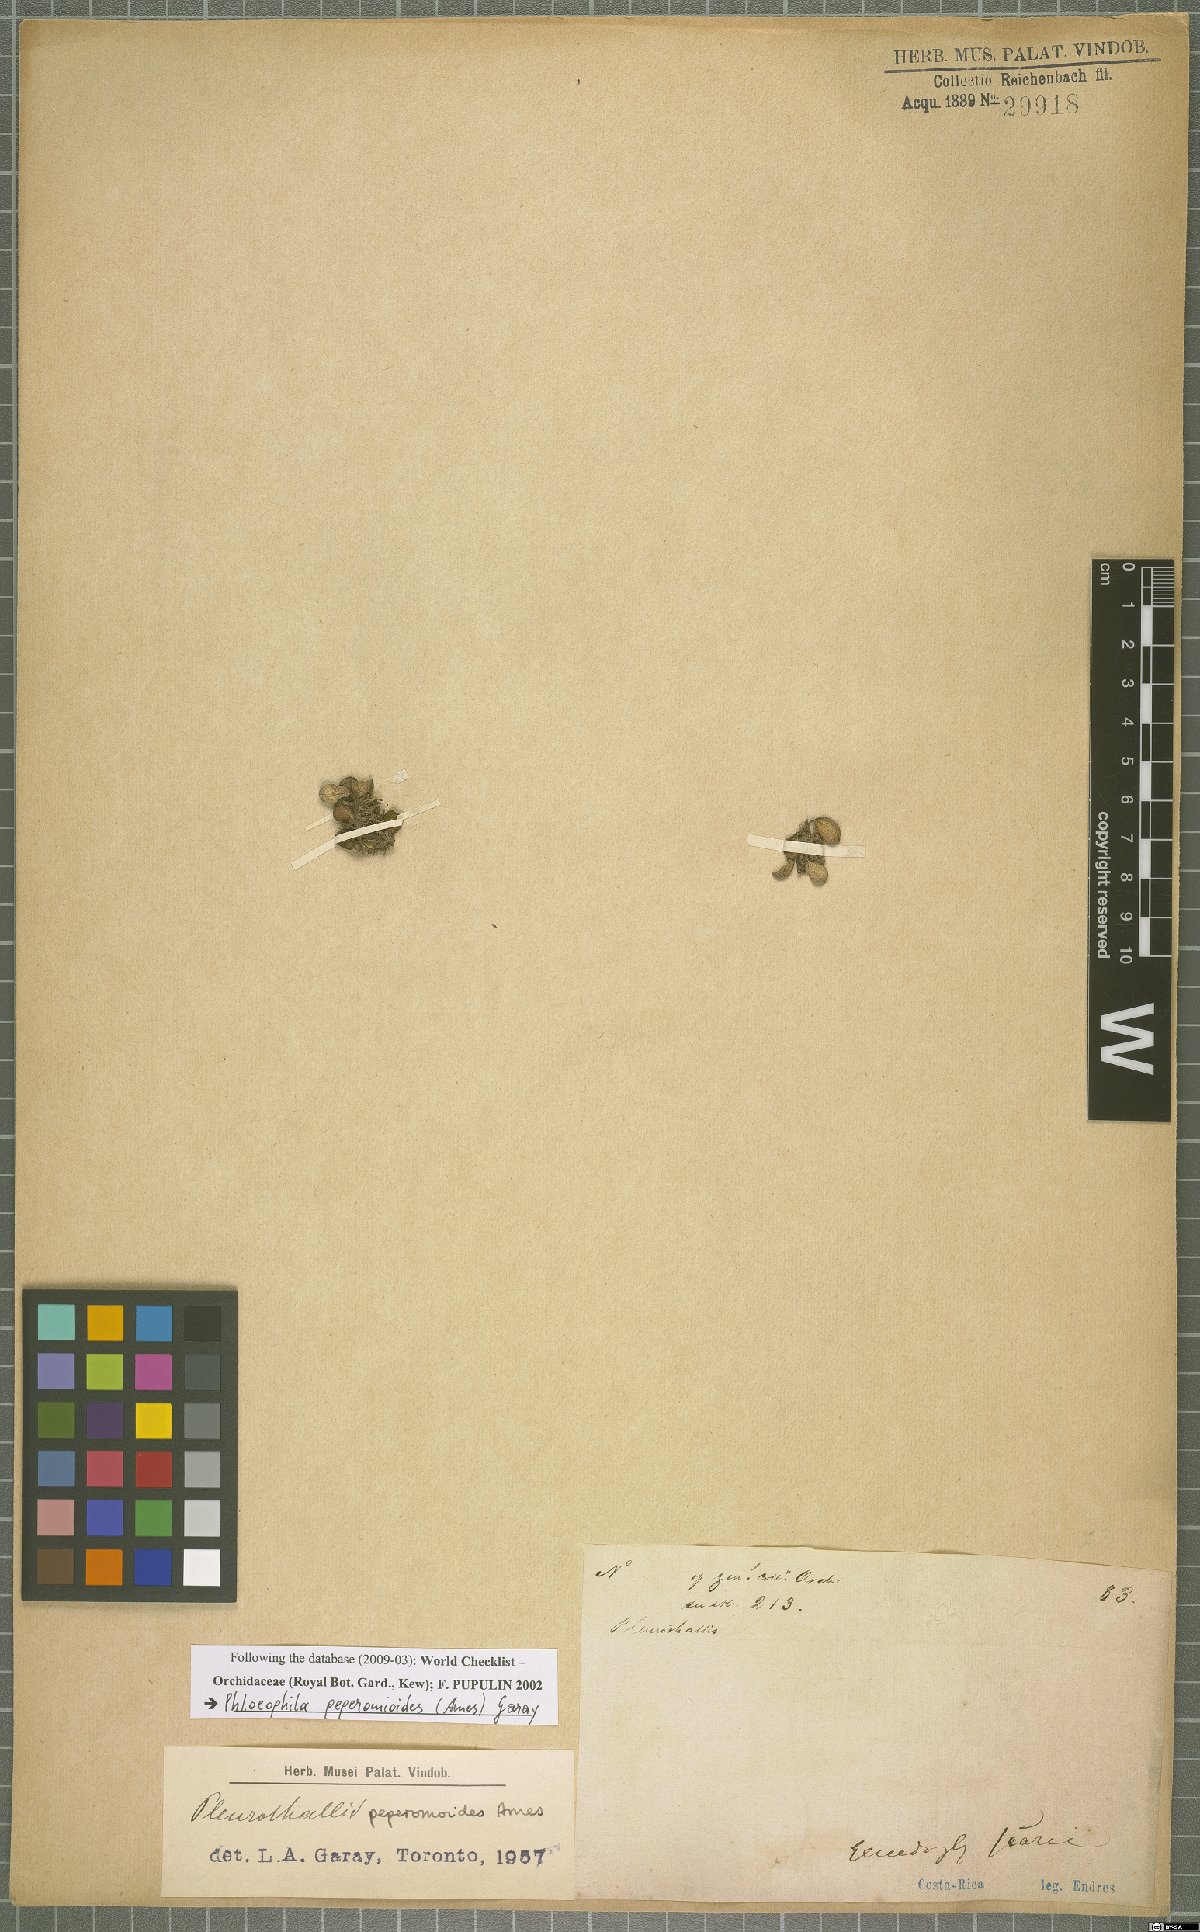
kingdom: Plantae
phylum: Tracheophyta
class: Liliopsida
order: Asparagales
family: Orchidaceae
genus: Phloeophila
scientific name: Phloeophila peperomioides
